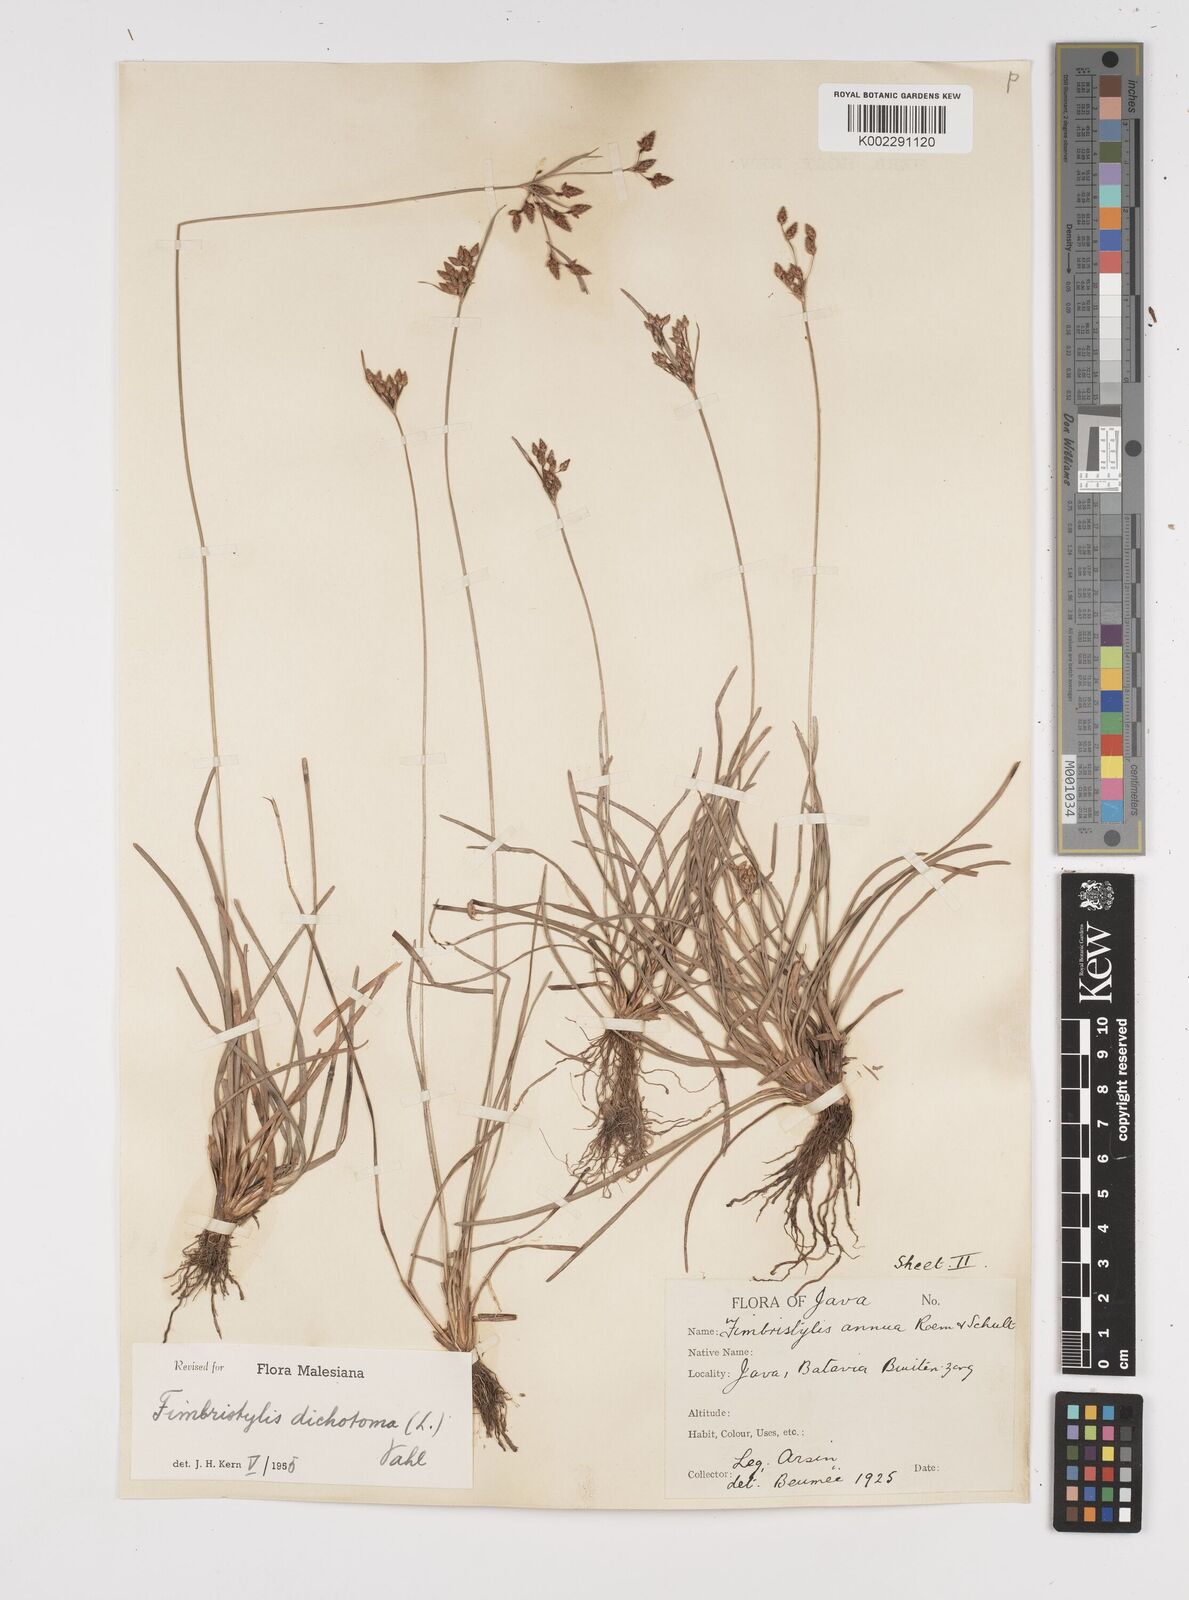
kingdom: Plantae
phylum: Tracheophyta
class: Liliopsida
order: Poales
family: Cyperaceae
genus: Fimbristylis
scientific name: Fimbristylis dichotoma
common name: Forked fimbry
